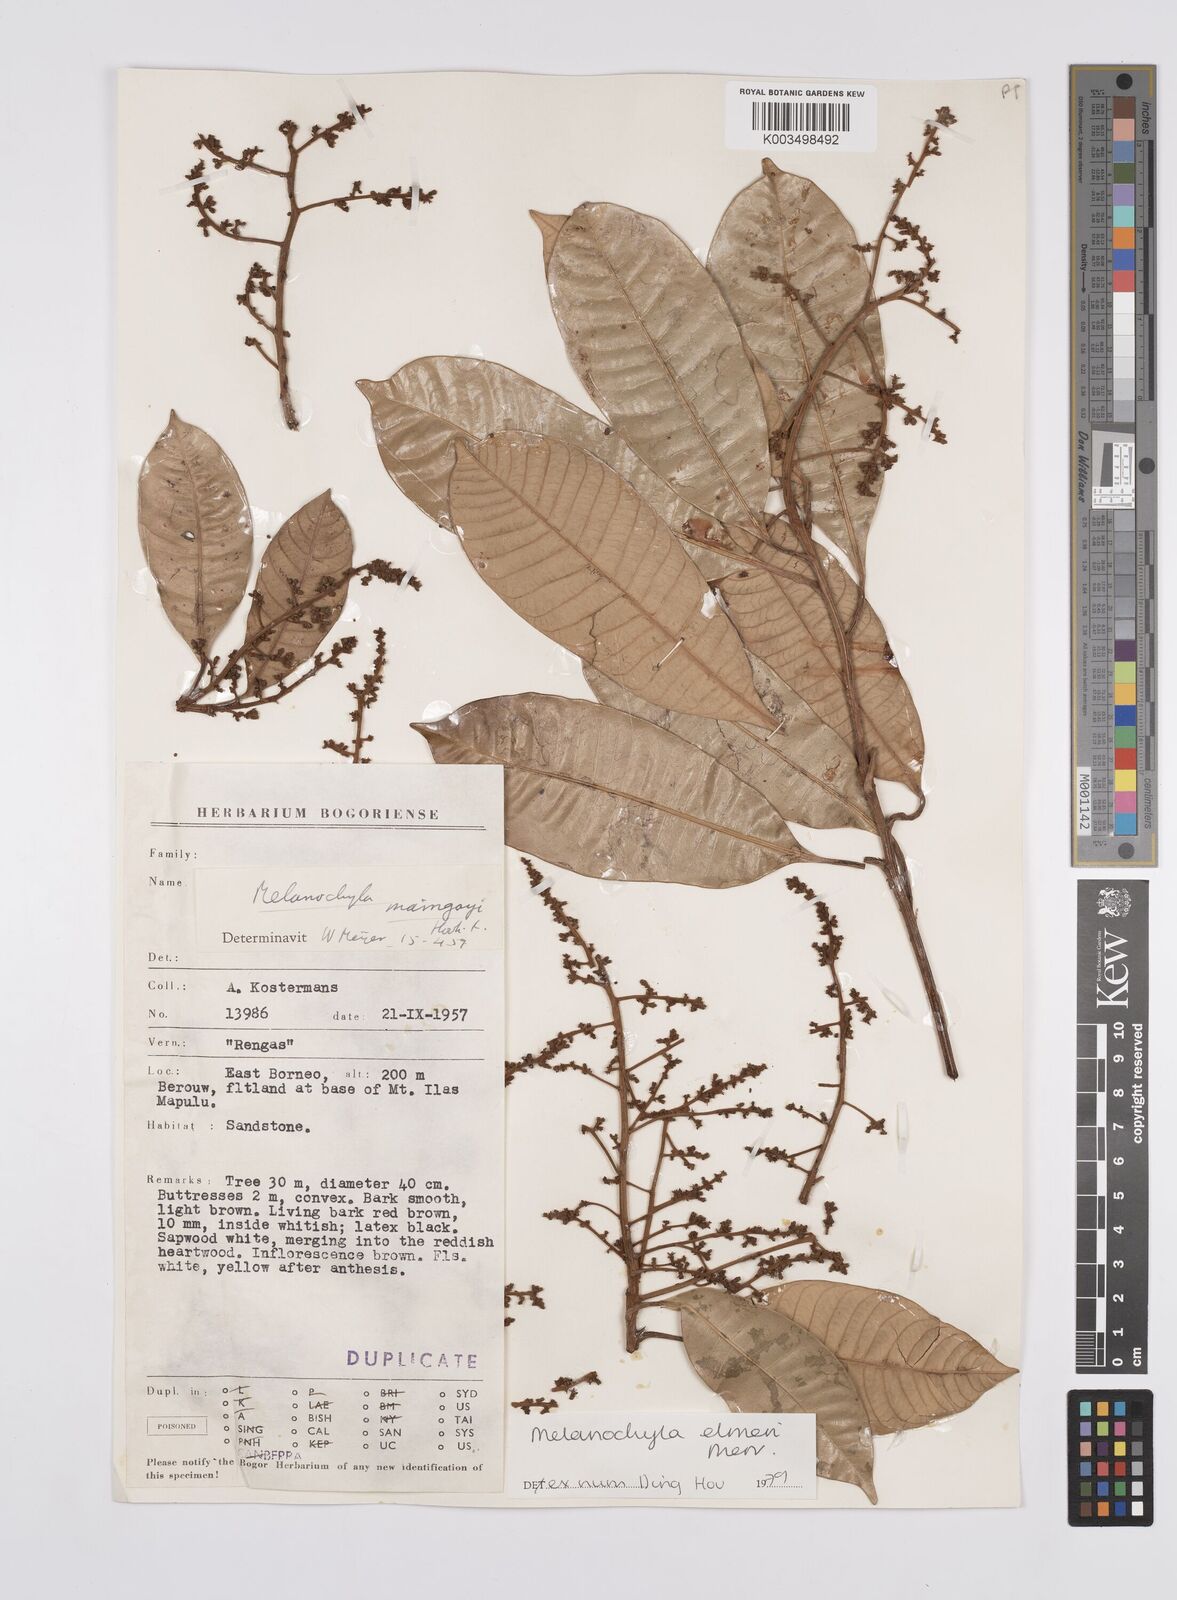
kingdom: Plantae
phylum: Tracheophyta
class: Magnoliopsida
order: Sapindales
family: Anacardiaceae
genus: Melanochyla
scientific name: Melanochyla elmeri
